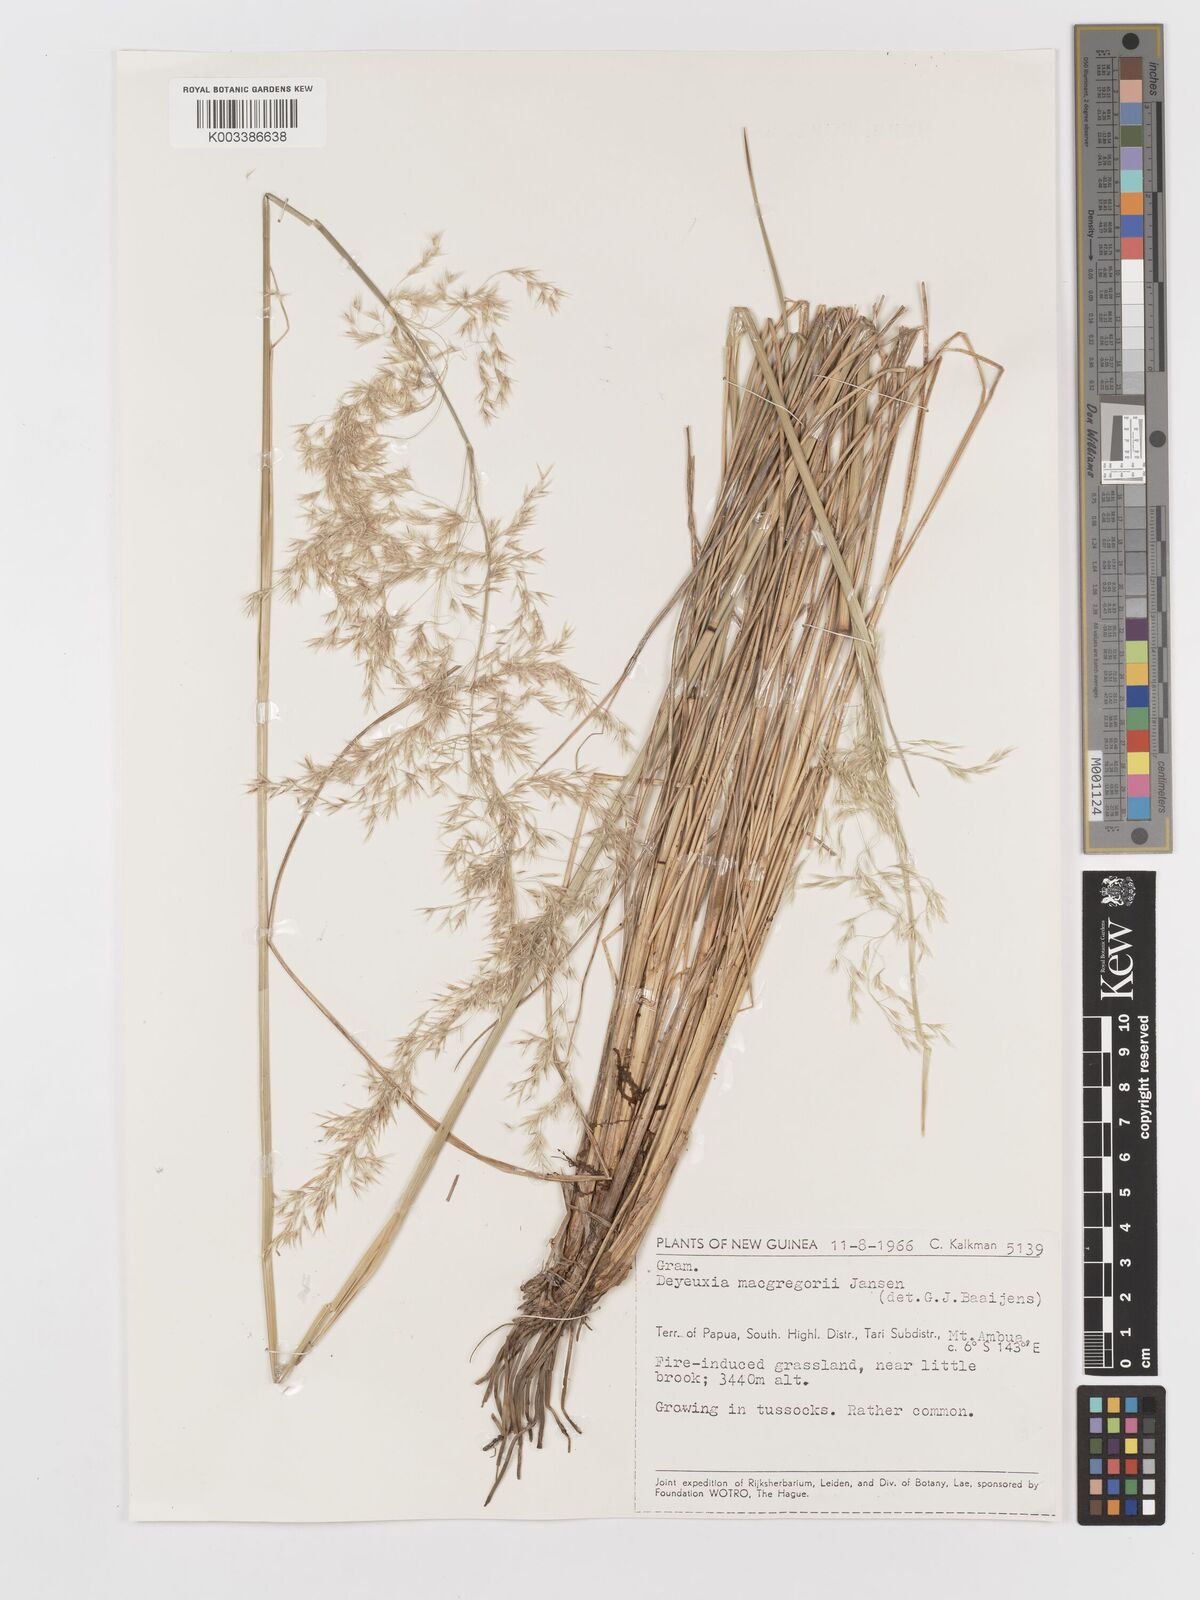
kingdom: Plantae
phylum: Tracheophyta
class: Liliopsida
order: Poales
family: Poaceae
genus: Deschampsia
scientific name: Deschampsia klossii
